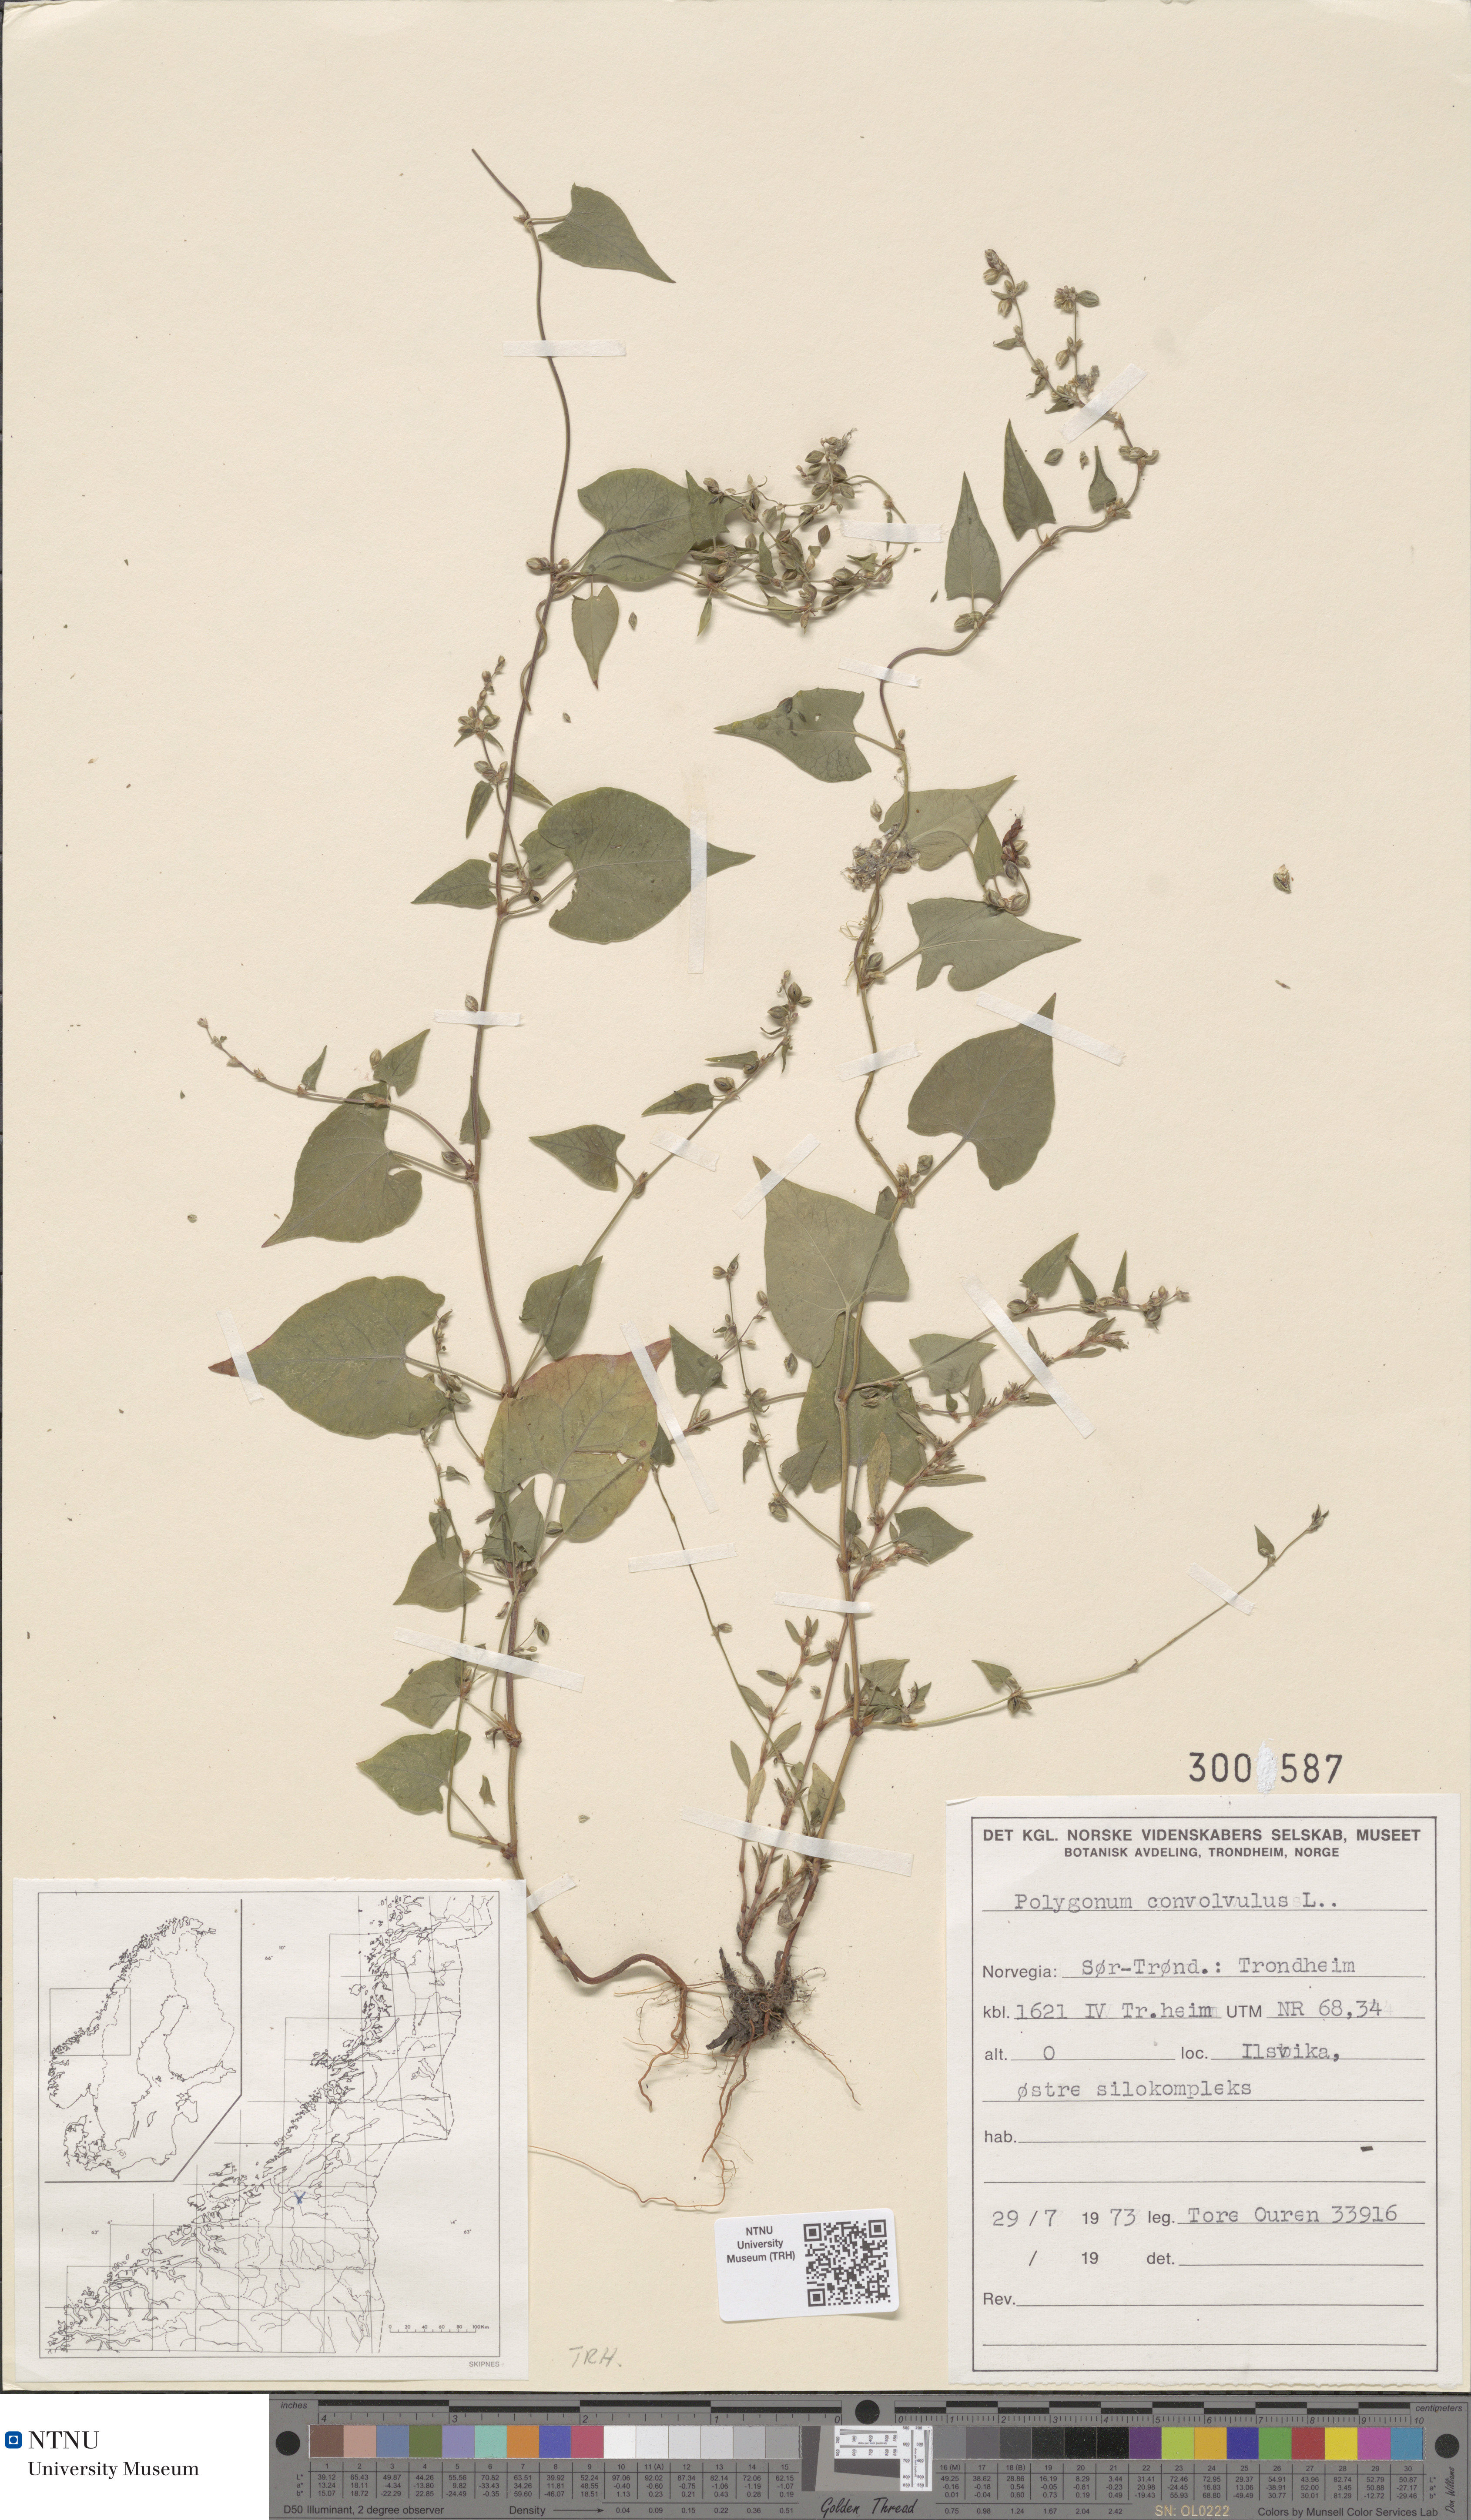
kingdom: Plantae
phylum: Tracheophyta
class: Magnoliopsida
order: Caryophyllales
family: Polygonaceae
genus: Fallopia
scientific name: Fallopia convolvulus
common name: Black bindweed
